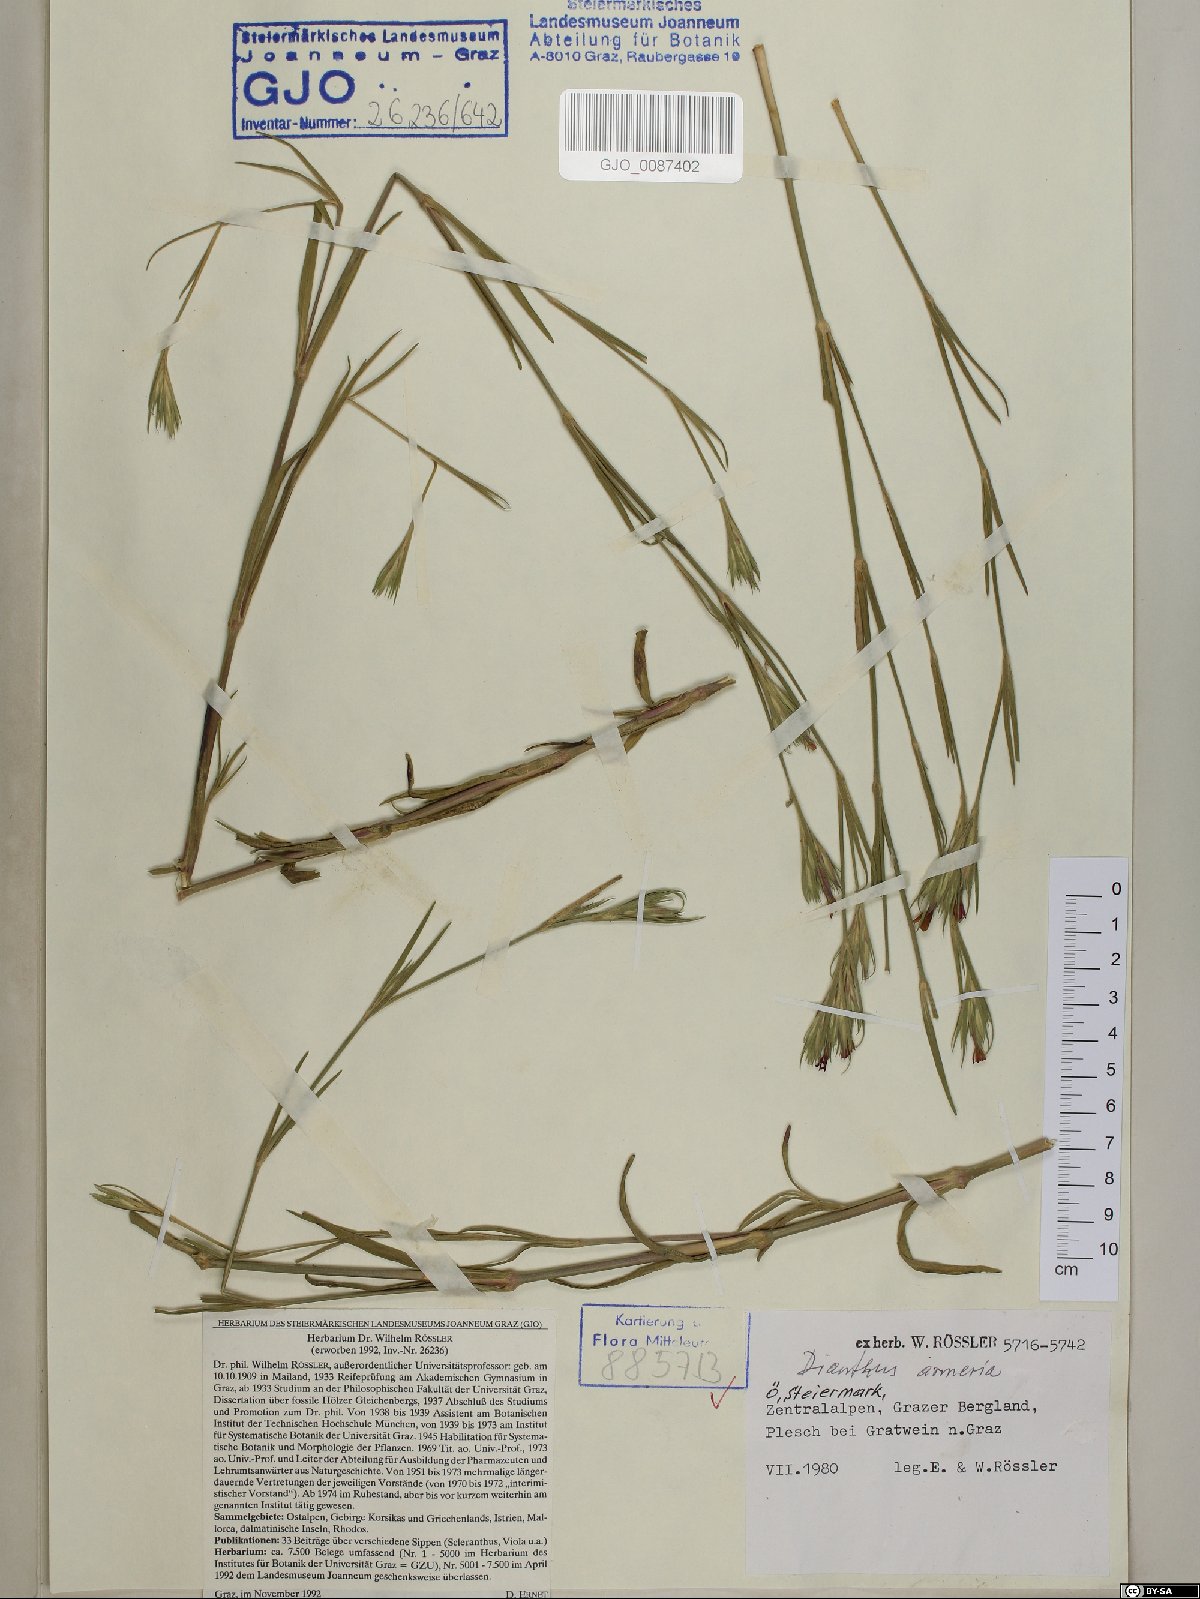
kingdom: Plantae
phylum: Tracheophyta
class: Magnoliopsida
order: Caryophyllales
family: Caryophyllaceae
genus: Dianthus
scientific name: Dianthus armeria
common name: Deptford pink
